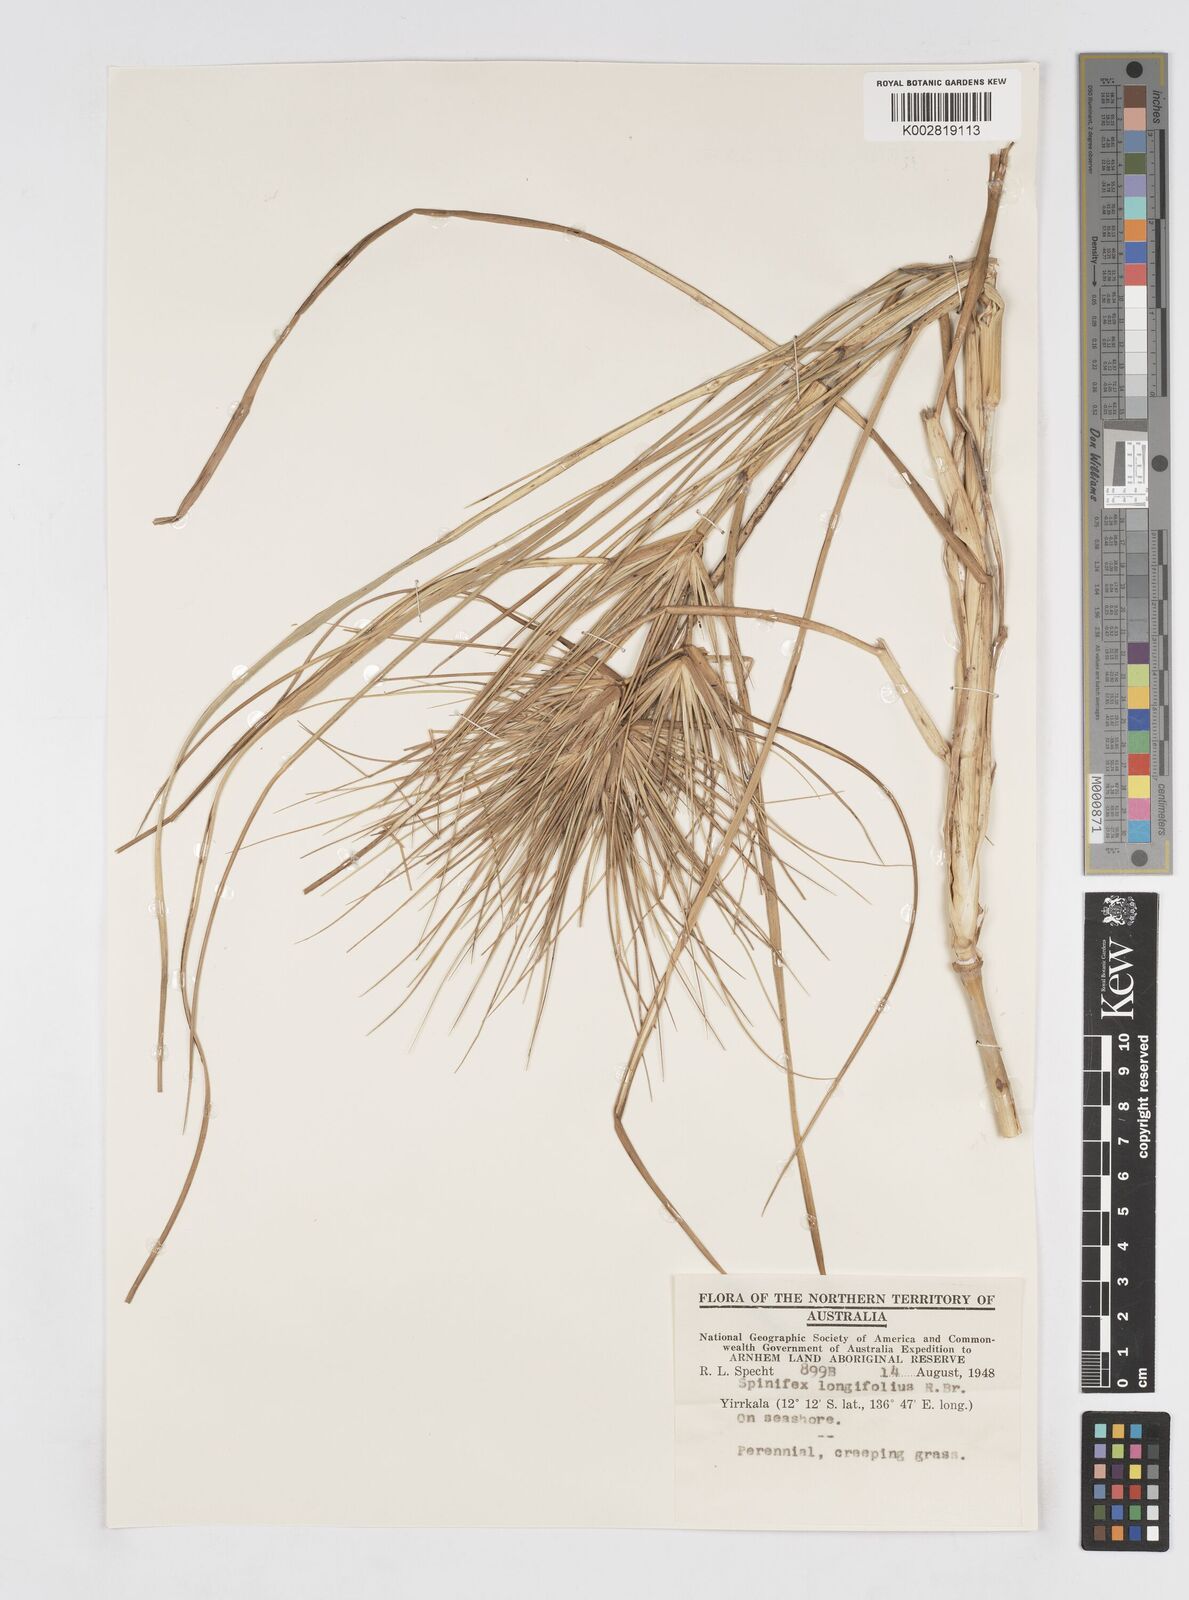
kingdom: Plantae
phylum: Tracheophyta
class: Liliopsida
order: Poales
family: Poaceae
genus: Spinifex
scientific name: Spinifex longifolius
